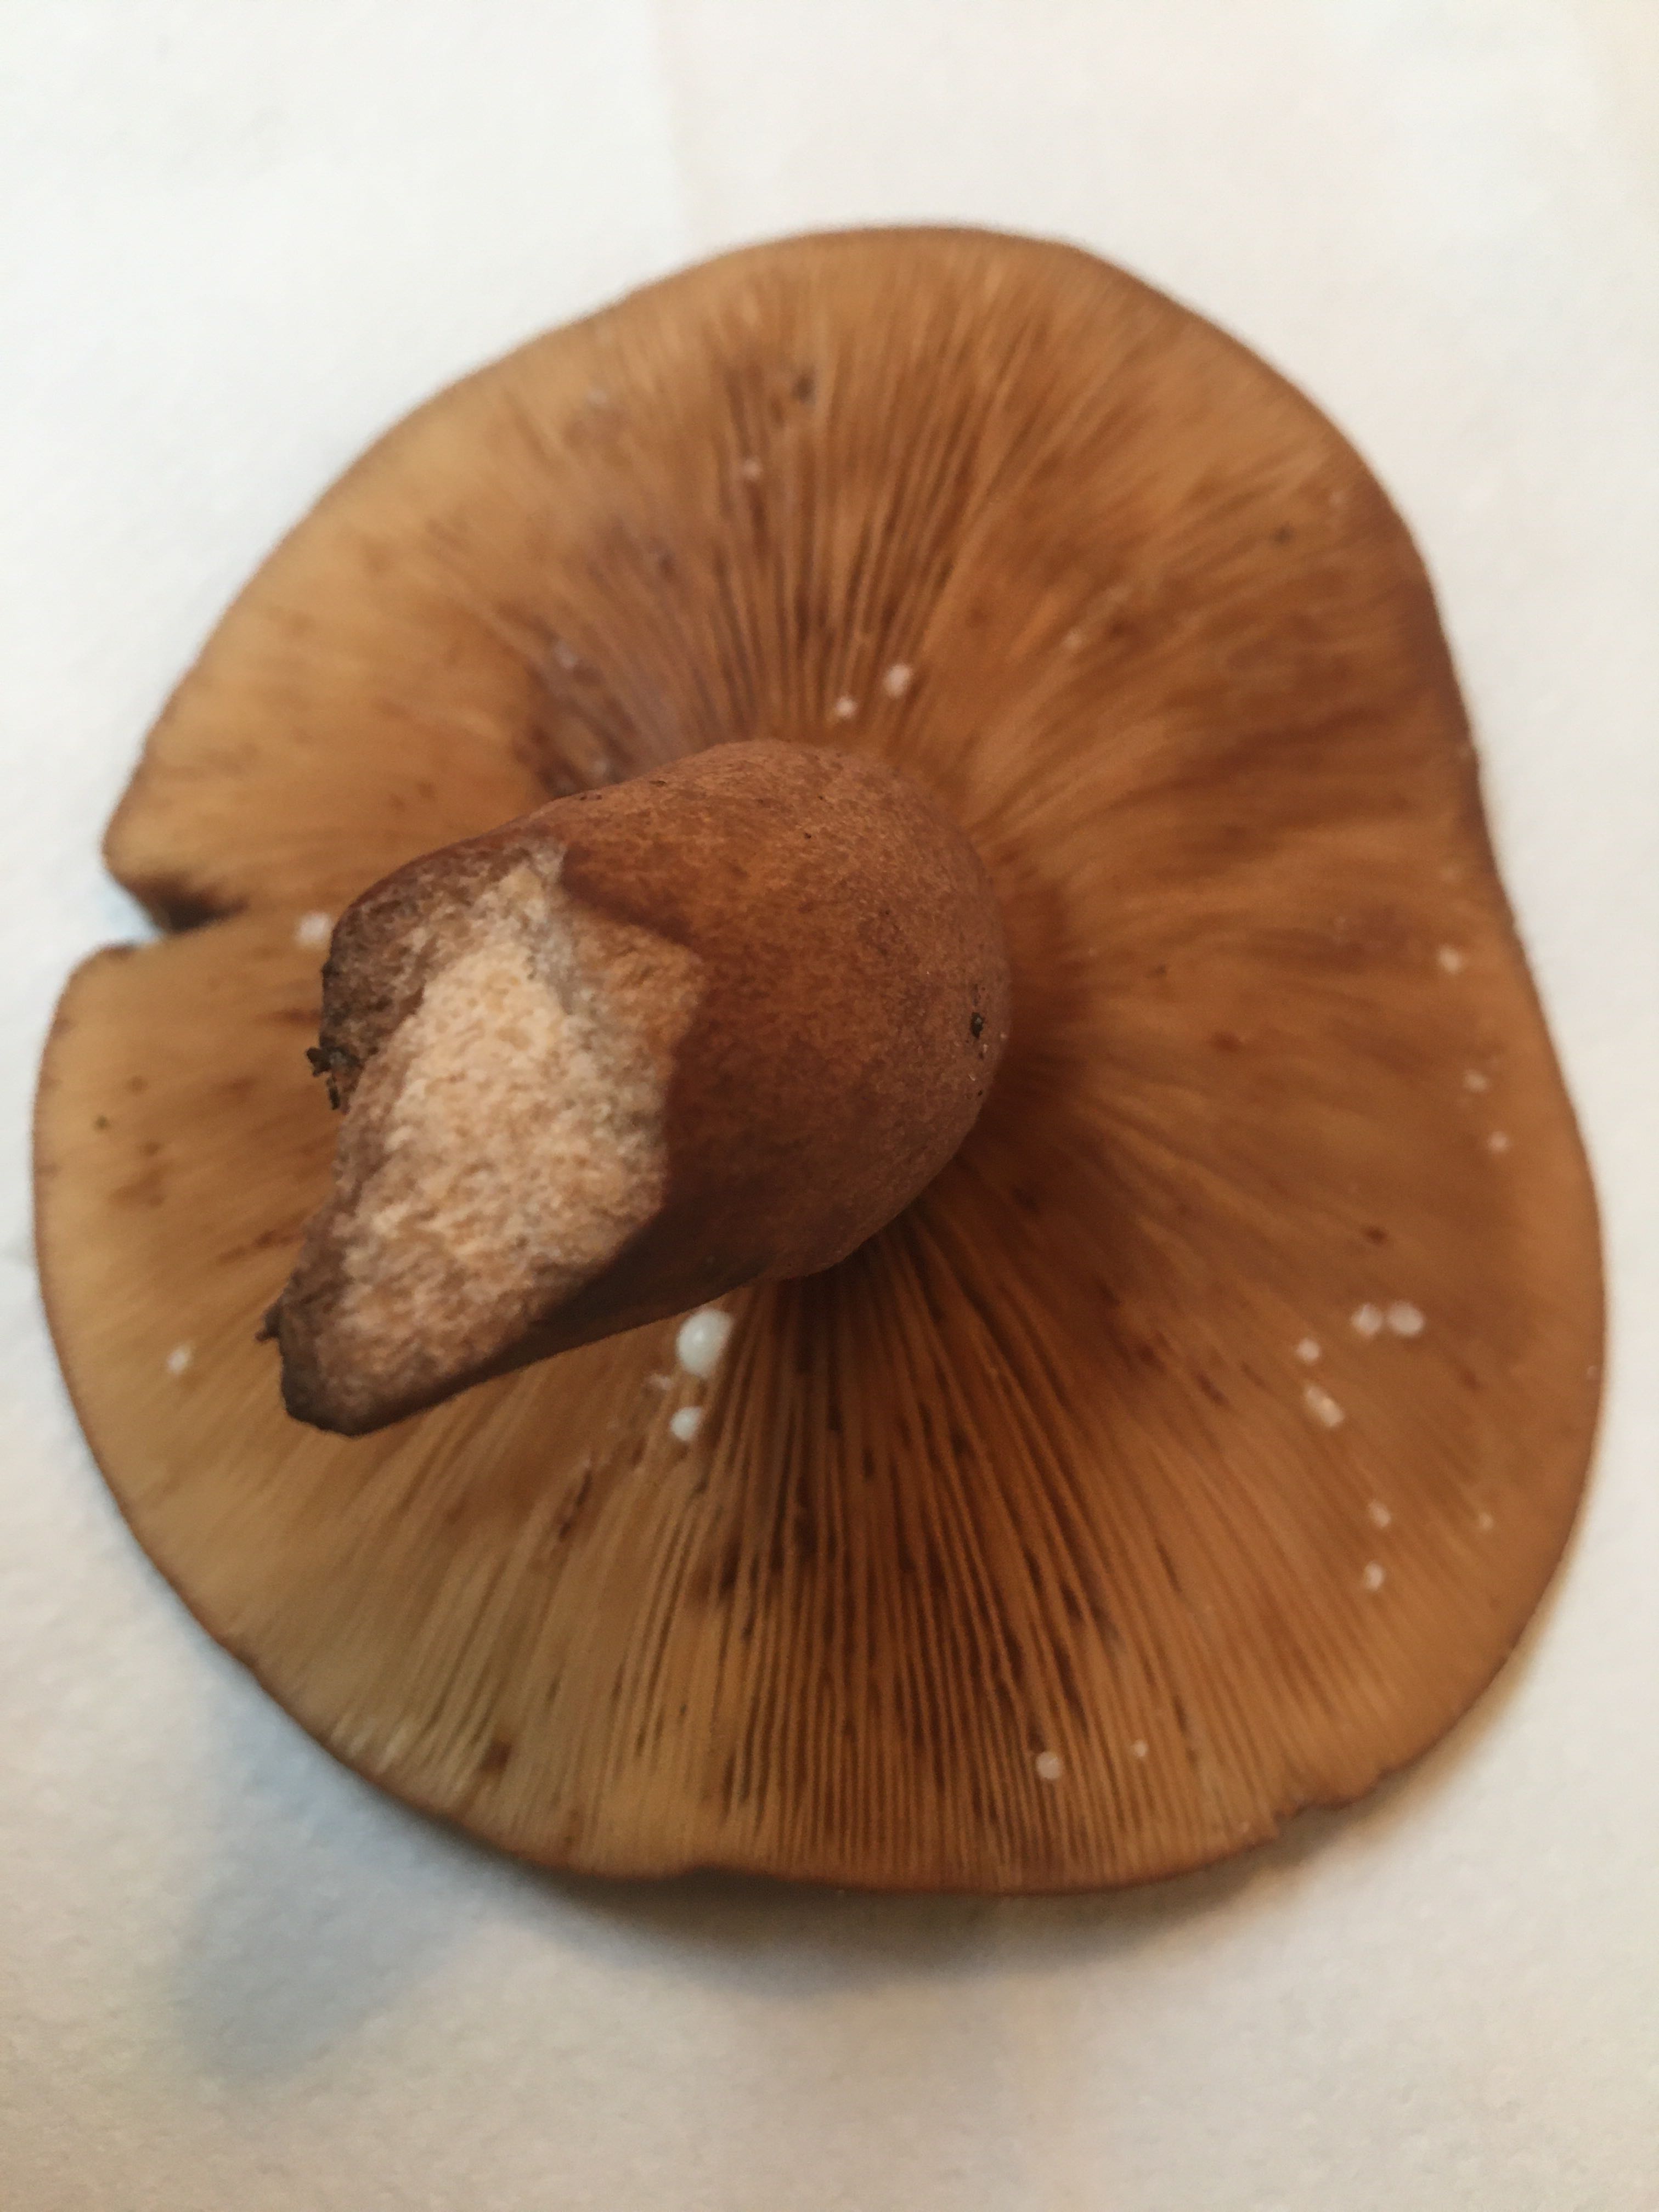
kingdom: Fungi
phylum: Basidiomycota
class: Agaricomycetes
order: Russulales
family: Russulaceae
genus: Lactarius
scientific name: Lactarius quietus
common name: ege-mælkehat
